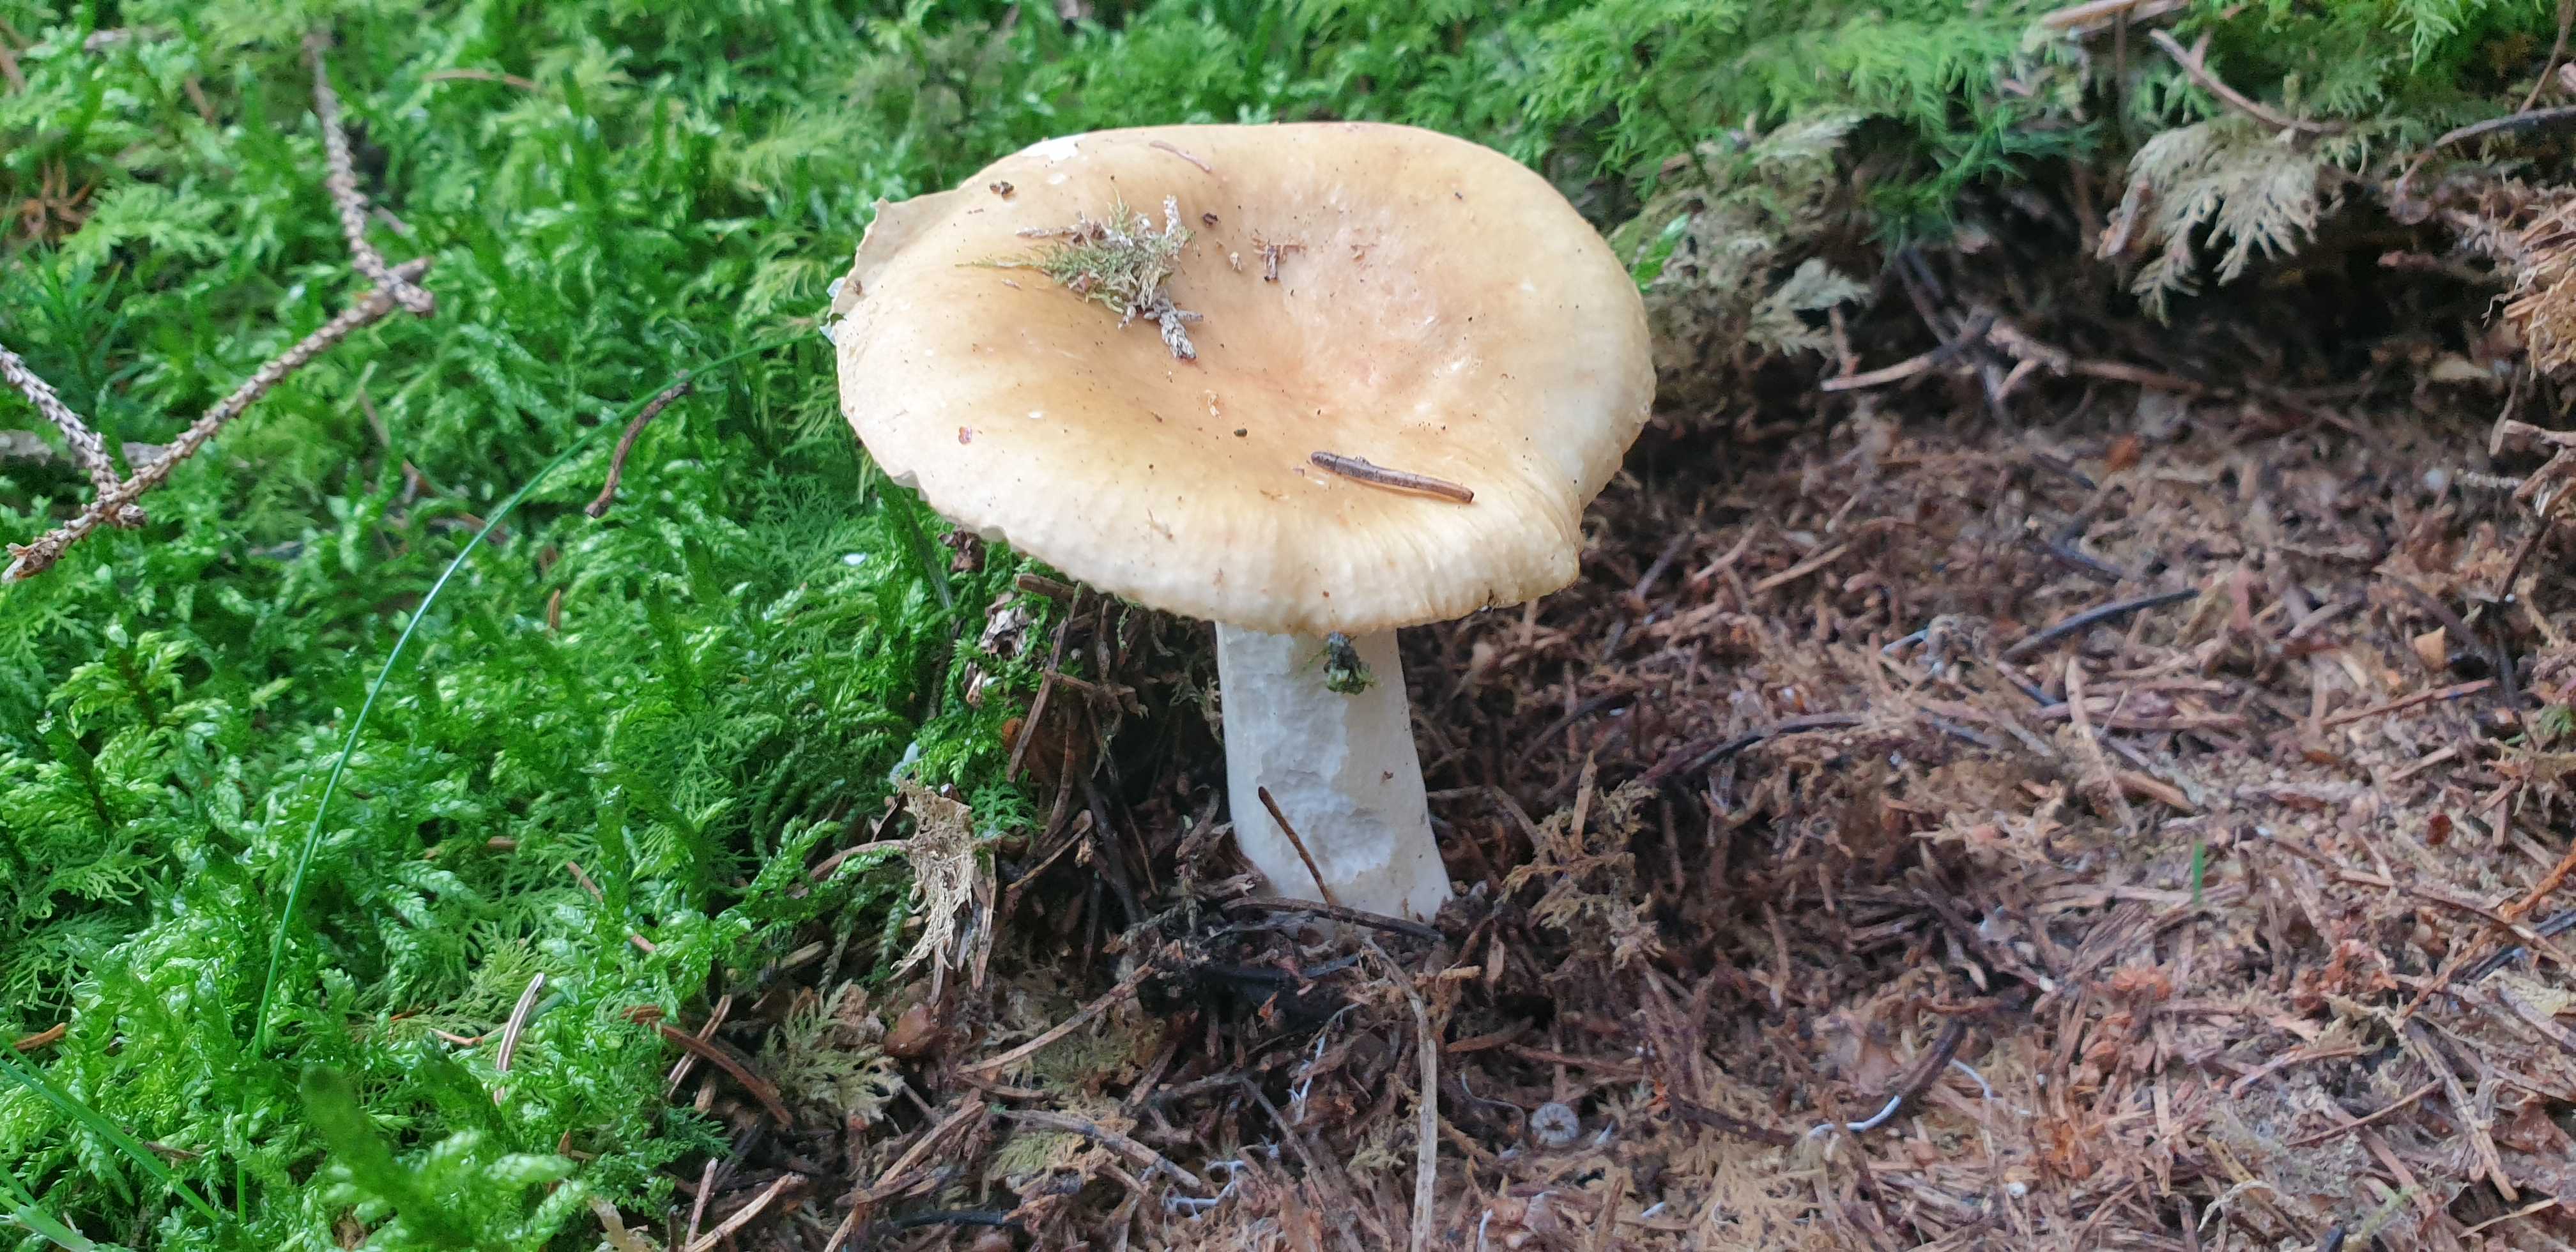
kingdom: Fungi
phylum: Basidiomycota
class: Agaricomycetes
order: Russulales
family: Russulaceae
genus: Russula
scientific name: Russula ochroleuca
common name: okkergul skørhat
